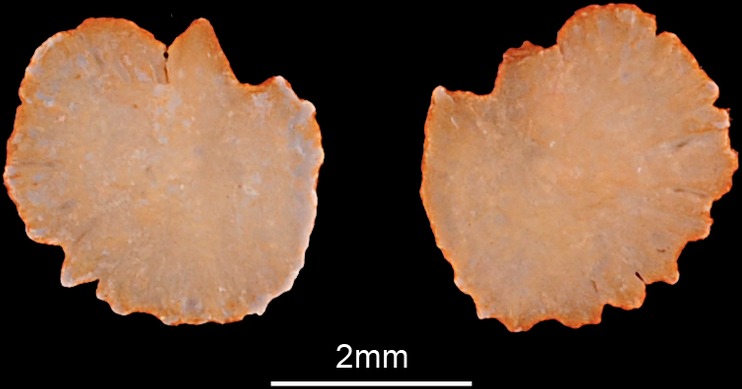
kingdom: Animalia
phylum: Chordata
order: Cypriniformes
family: Cyprinidae
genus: Chondrostoma
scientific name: Chondrostoma nasus
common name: Nase
